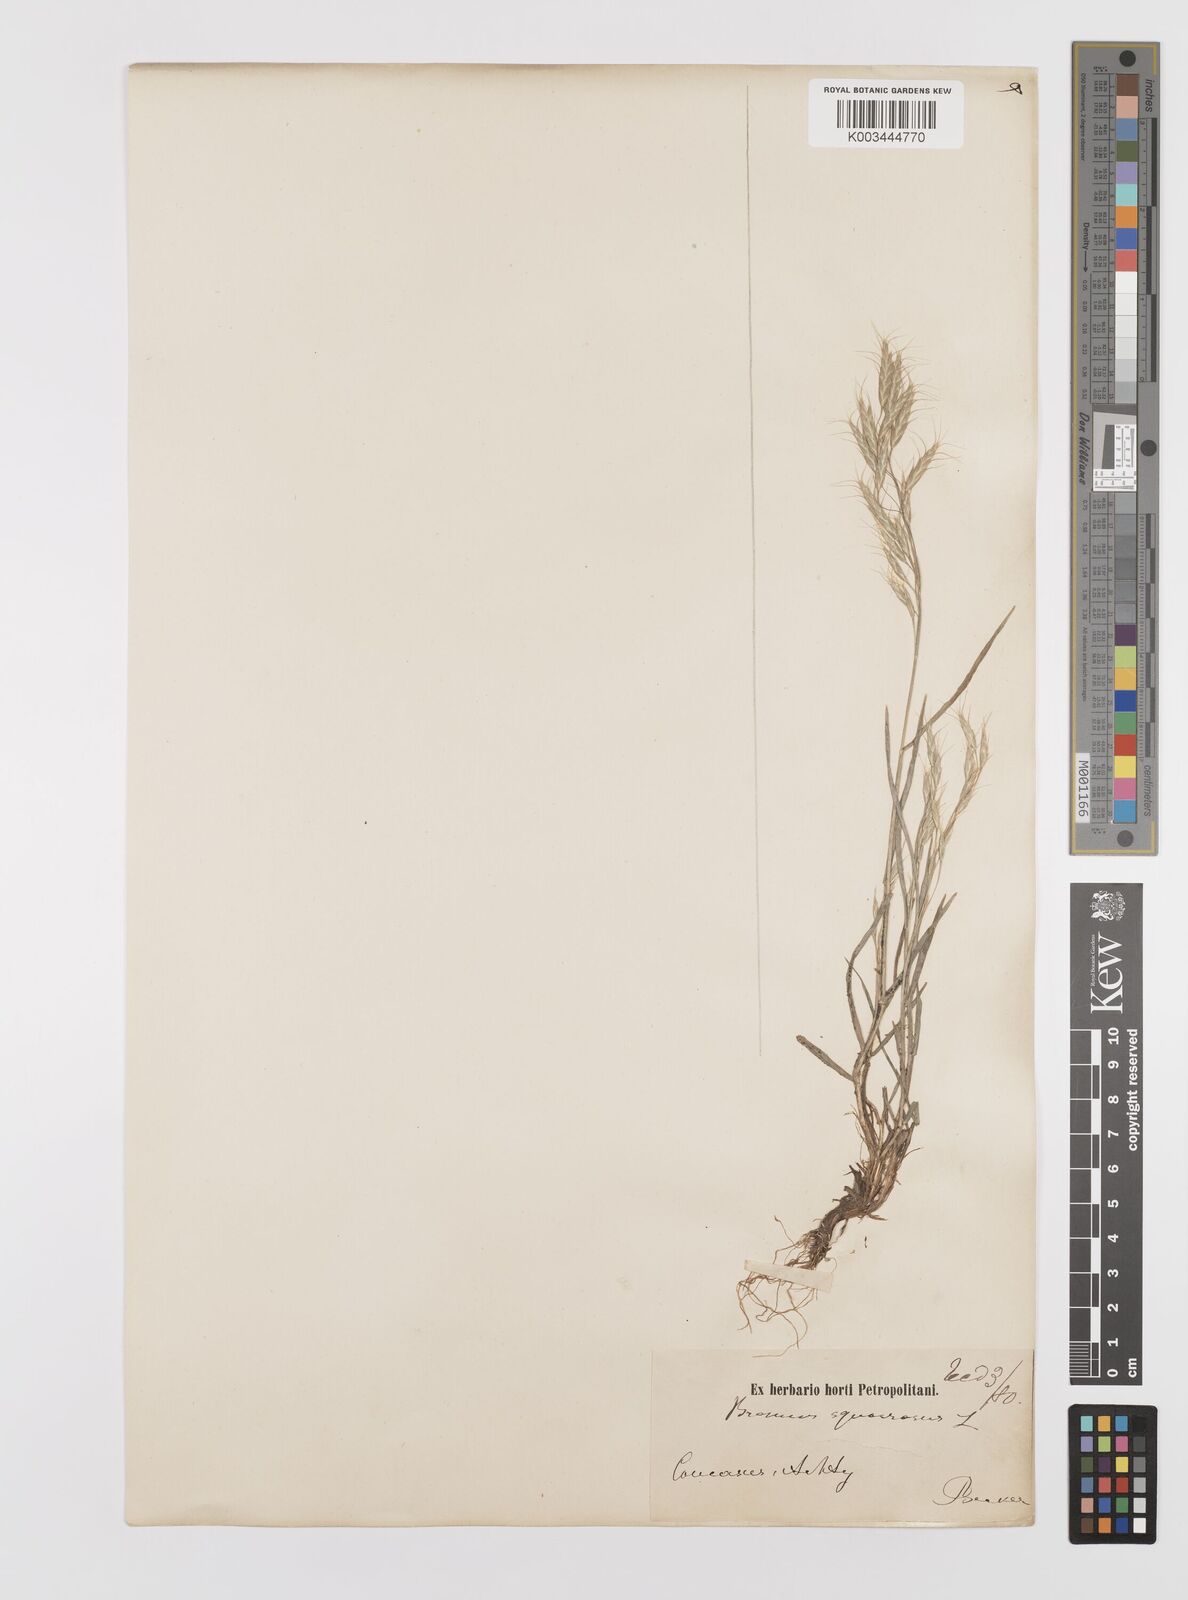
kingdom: Plantae
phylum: Tracheophyta
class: Liliopsida
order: Poales
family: Poaceae
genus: Bromus
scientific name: Bromus squarrosus
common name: Corn brome
